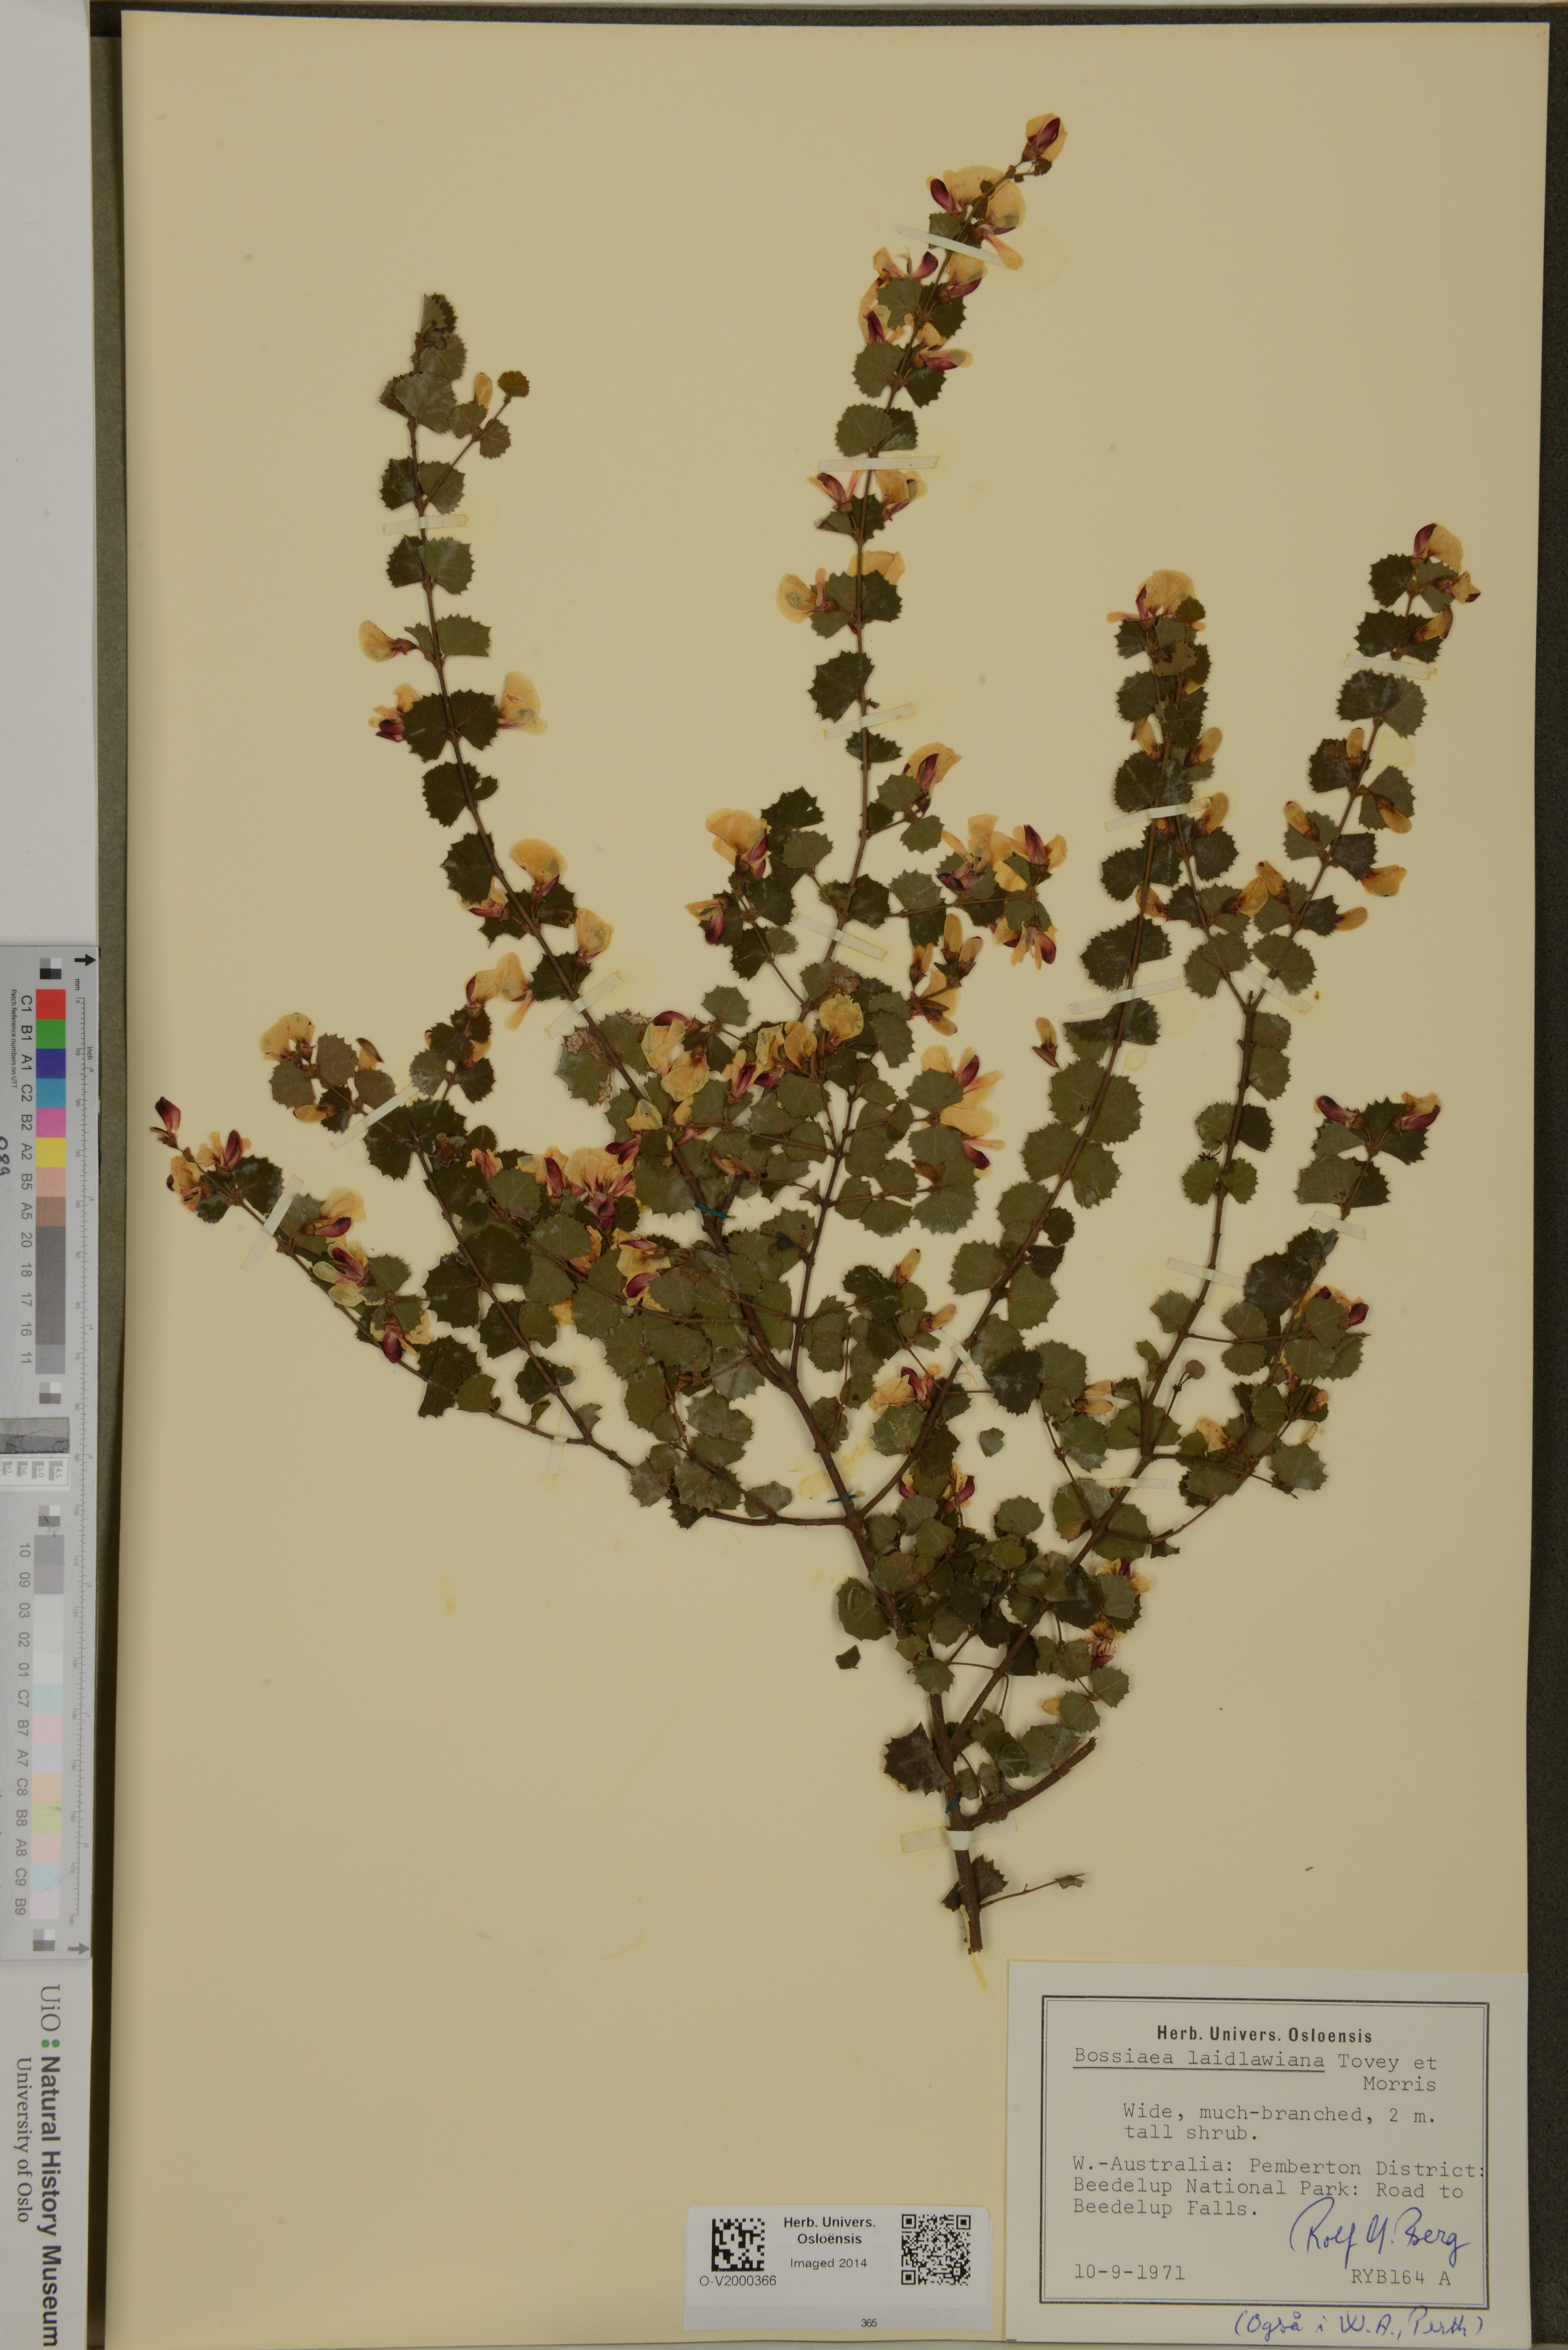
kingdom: Plantae
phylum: Tracheophyta
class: Magnoliopsida
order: Fabales
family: Fabaceae
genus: Bossiaea
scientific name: Bossiaea aquifolium
